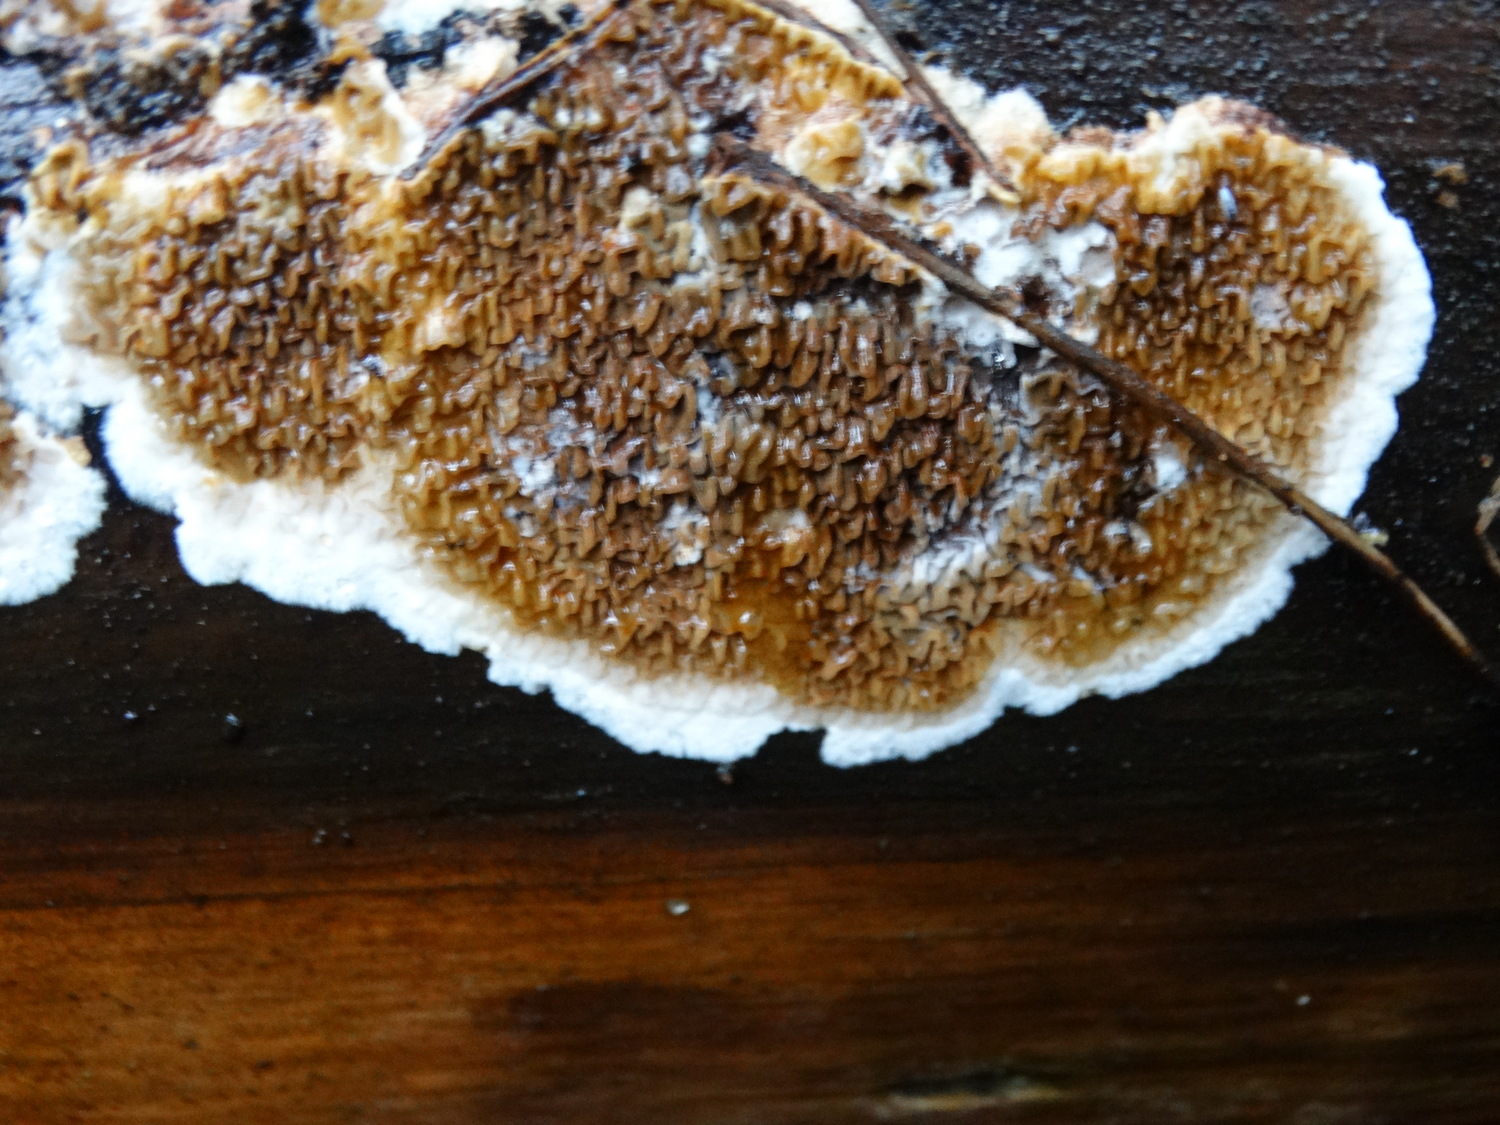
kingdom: Fungi
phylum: Basidiomycota
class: Agaricomycetes
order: Boletales
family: Serpulaceae
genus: Serpula
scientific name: Serpula himantioides
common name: tyndkødet hussvamp
